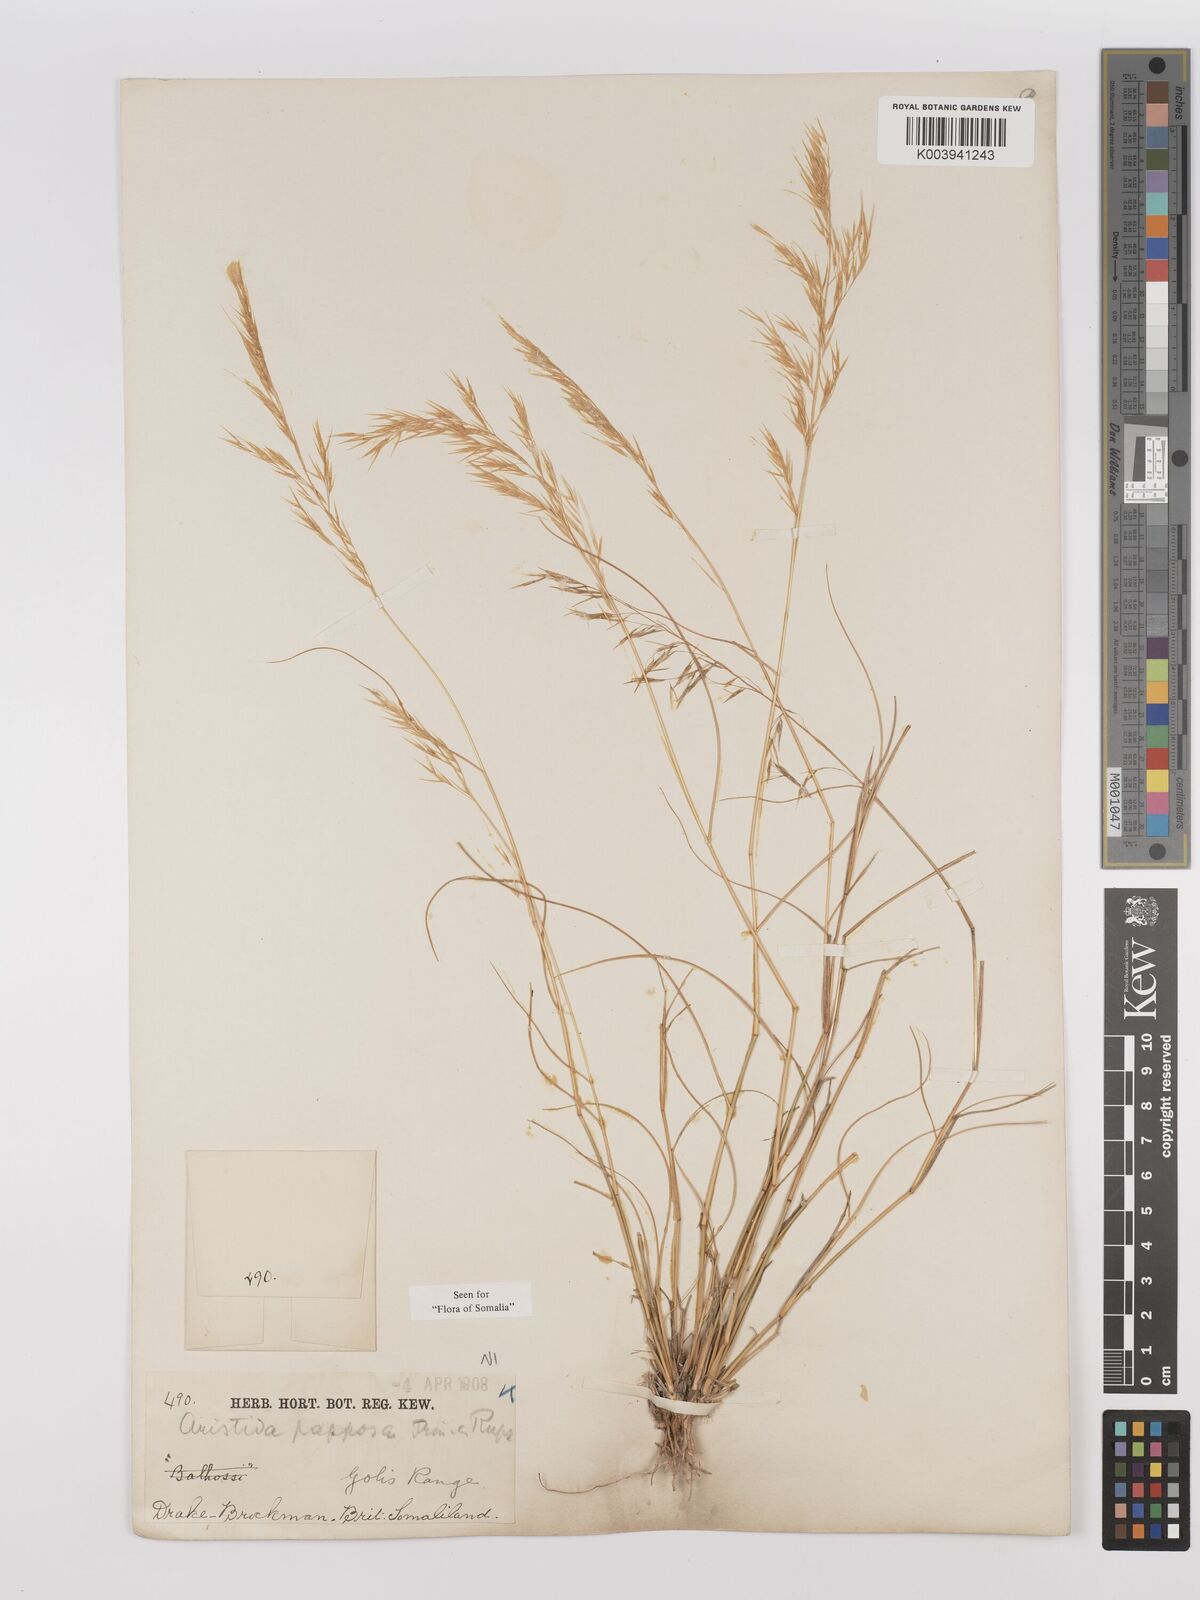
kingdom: Plantae
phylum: Tracheophyta
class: Liliopsida
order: Poales
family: Poaceae
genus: Stipagrostis
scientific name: Stipagrostis uniplumis
